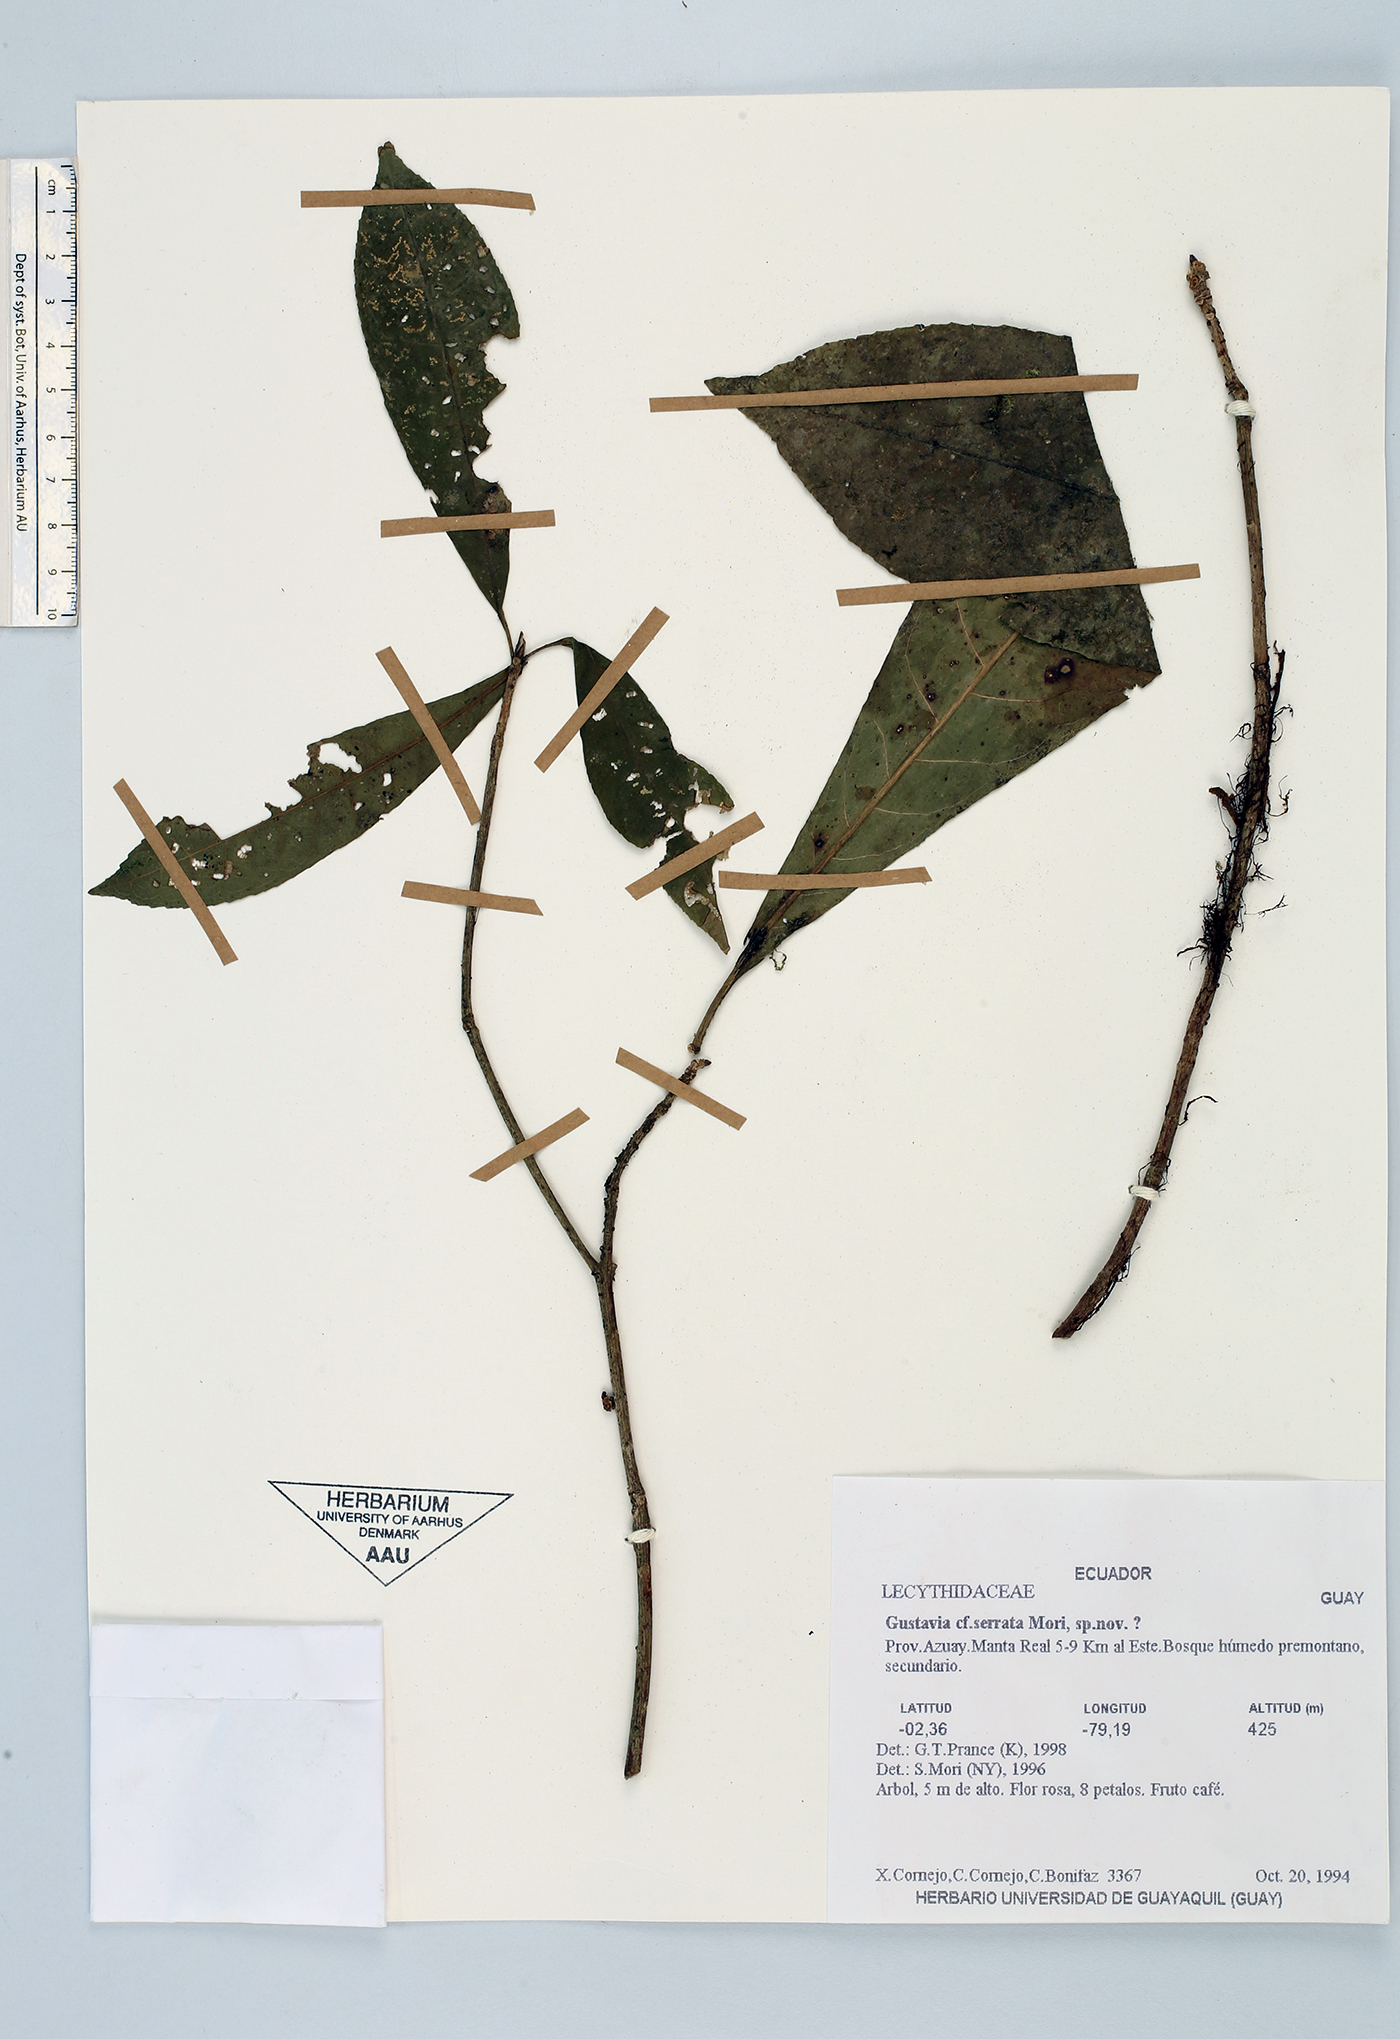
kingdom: Plantae
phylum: Tracheophyta
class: Magnoliopsida
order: Ericales
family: Lecythidaceae
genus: Gustavia
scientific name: Gustavia serrata
